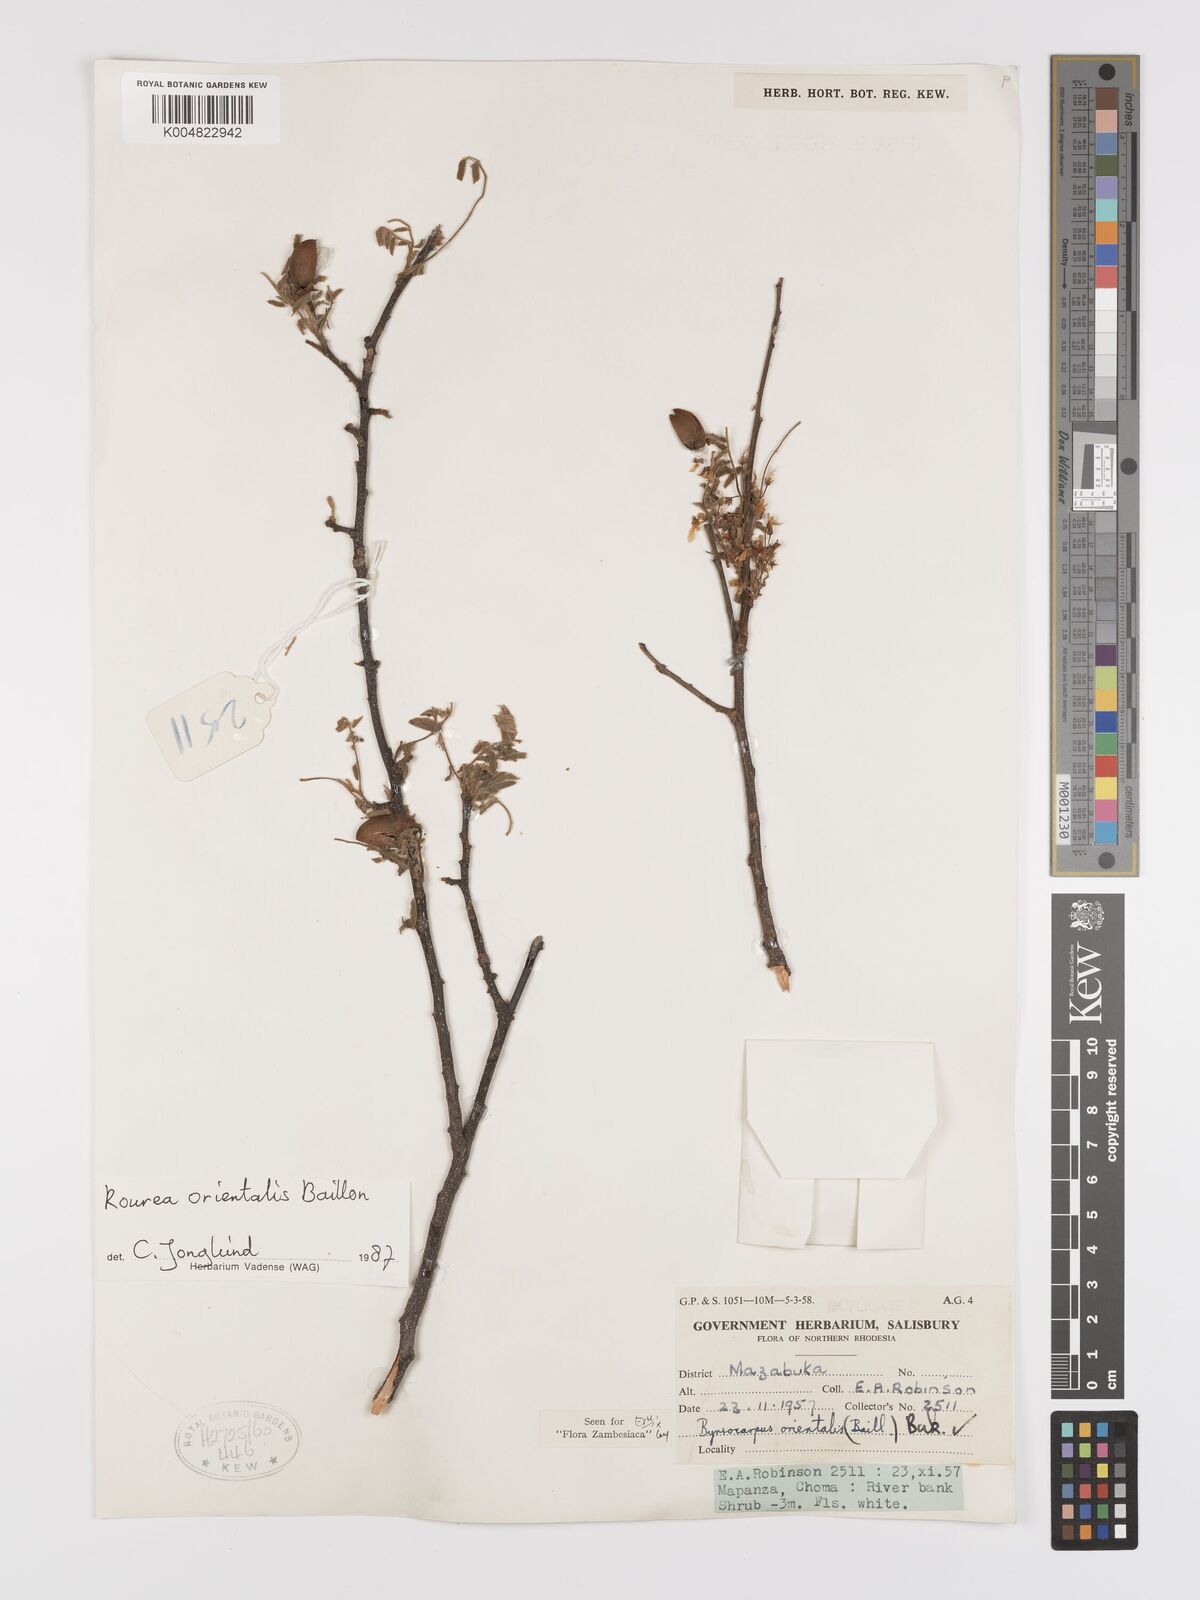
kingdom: Plantae
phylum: Tracheophyta
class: Magnoliopsida
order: Oxalidales
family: Connaraceae
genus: Rourea
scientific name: Rourea orientalis
